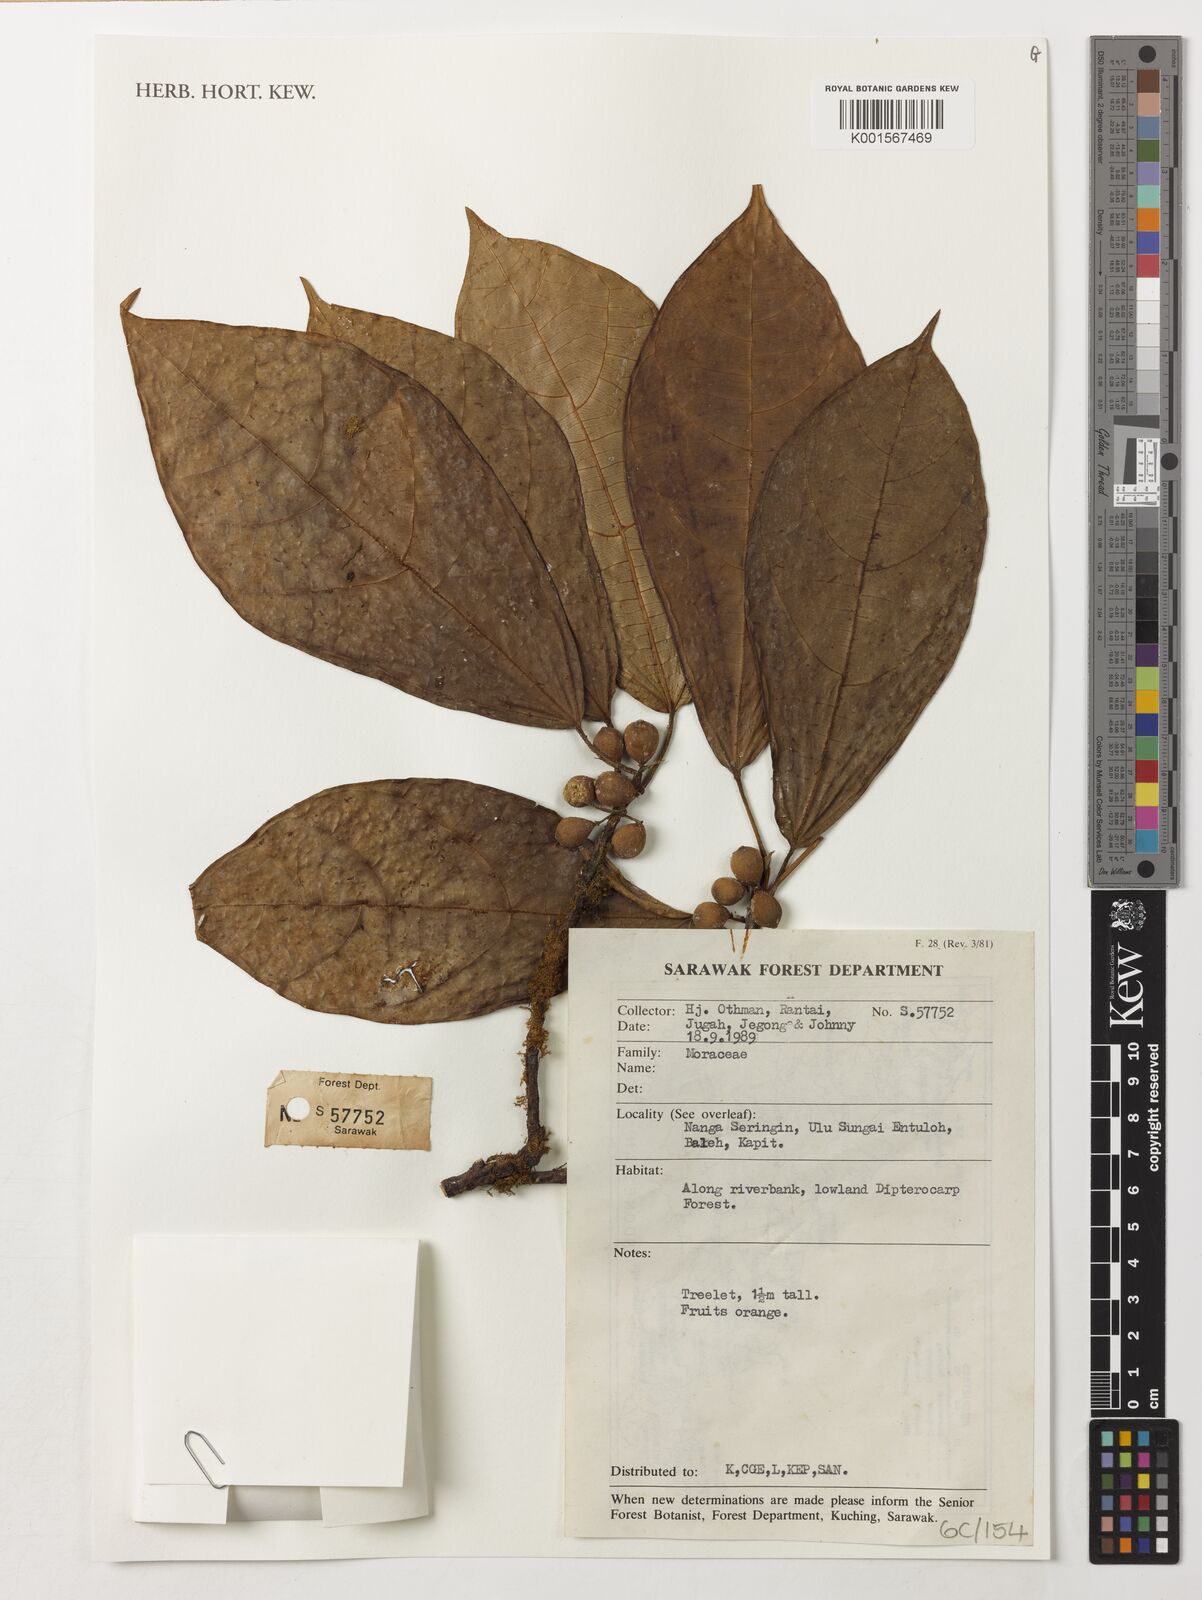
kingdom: Plantae
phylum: Tracheophyta
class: Magnoliopsida
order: Rosales
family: Moraceae
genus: Ficus
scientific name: Ficus
